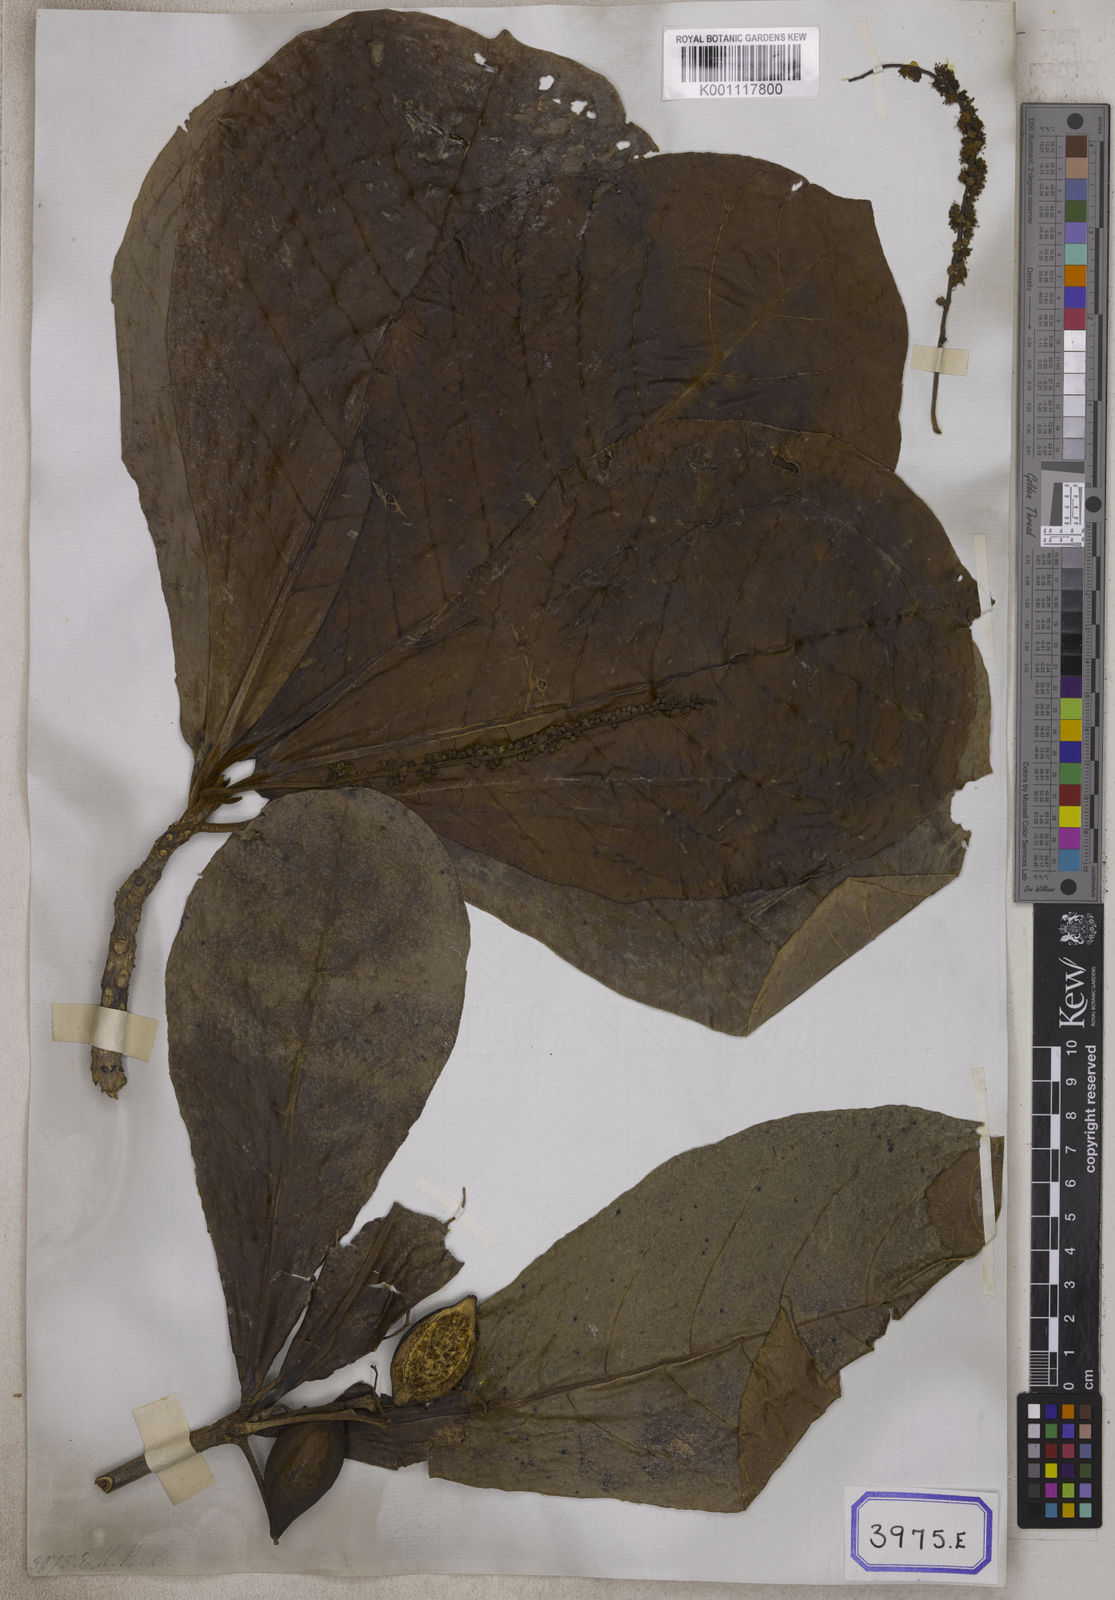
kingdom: Plantae
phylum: Tracheophyta
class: Magnoliopsida
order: Myrtales
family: Combretaceae
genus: Terminalia
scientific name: Terminalia catappa
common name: Tropical almond
